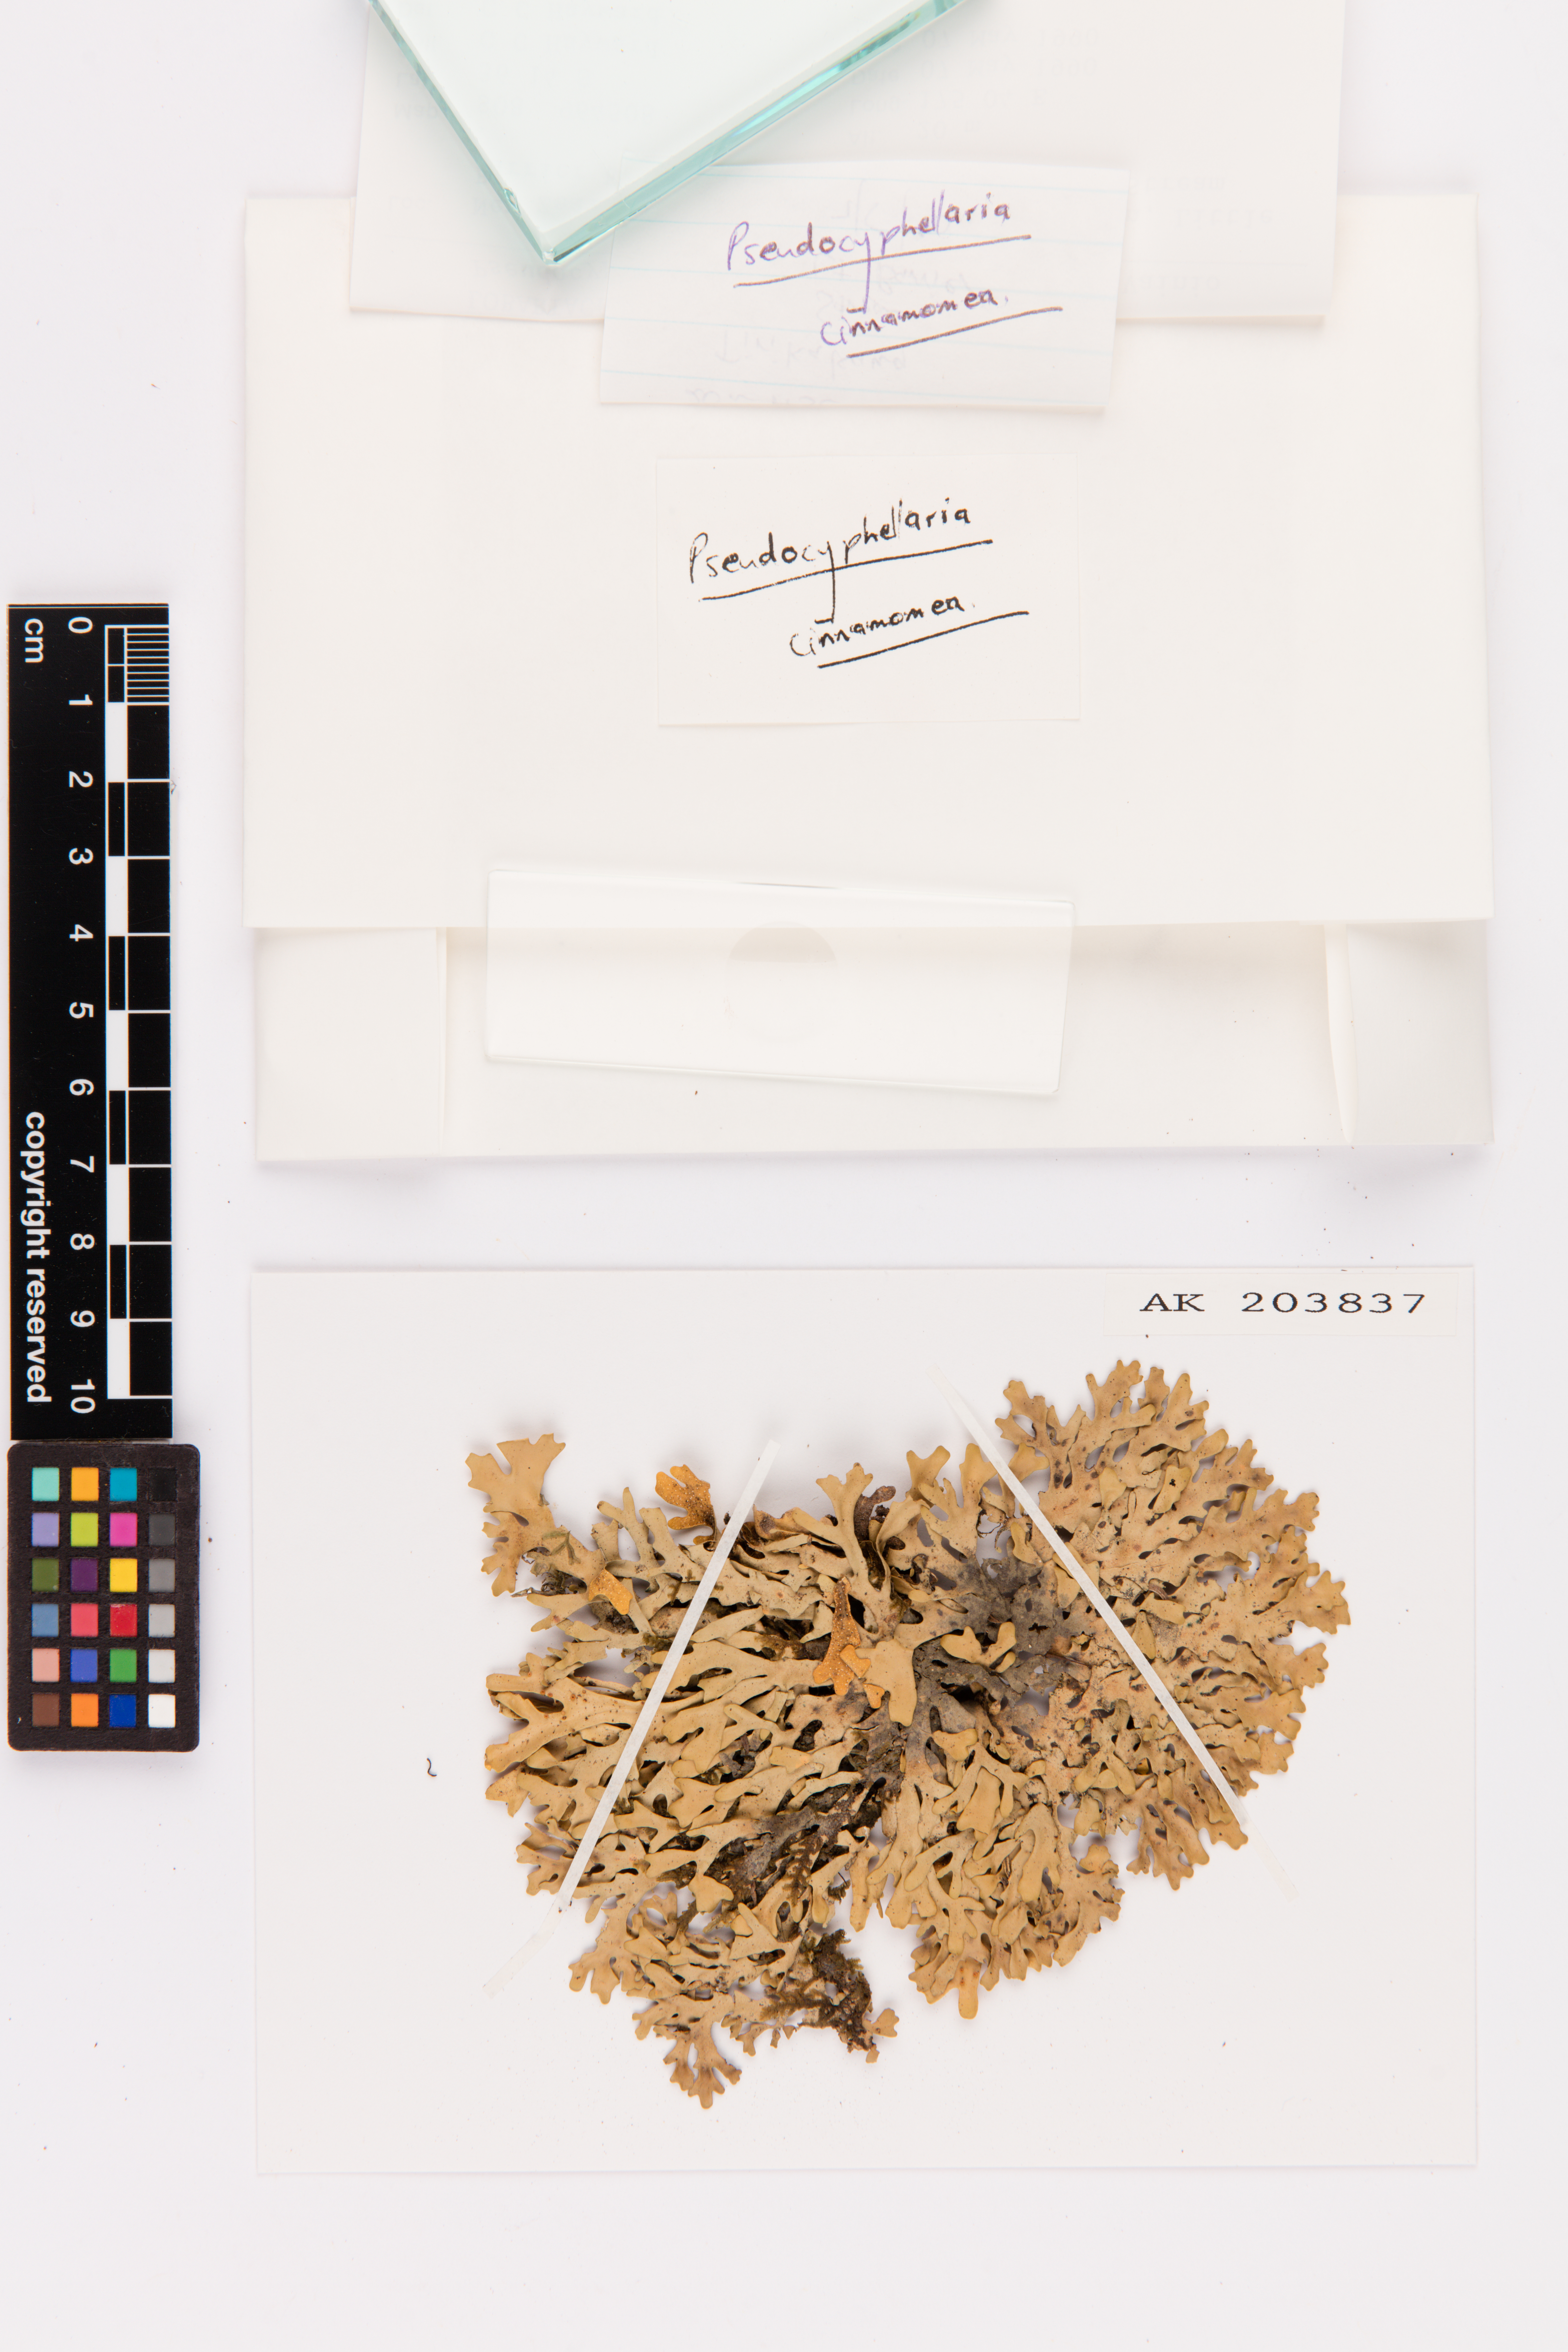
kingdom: Fungi
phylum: Ascomycota
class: Lecanoromycetes
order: Peltigerales
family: Lobariaceae
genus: Pseudocyphellaria
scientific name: Pseudocyphellaria cinnamomea
